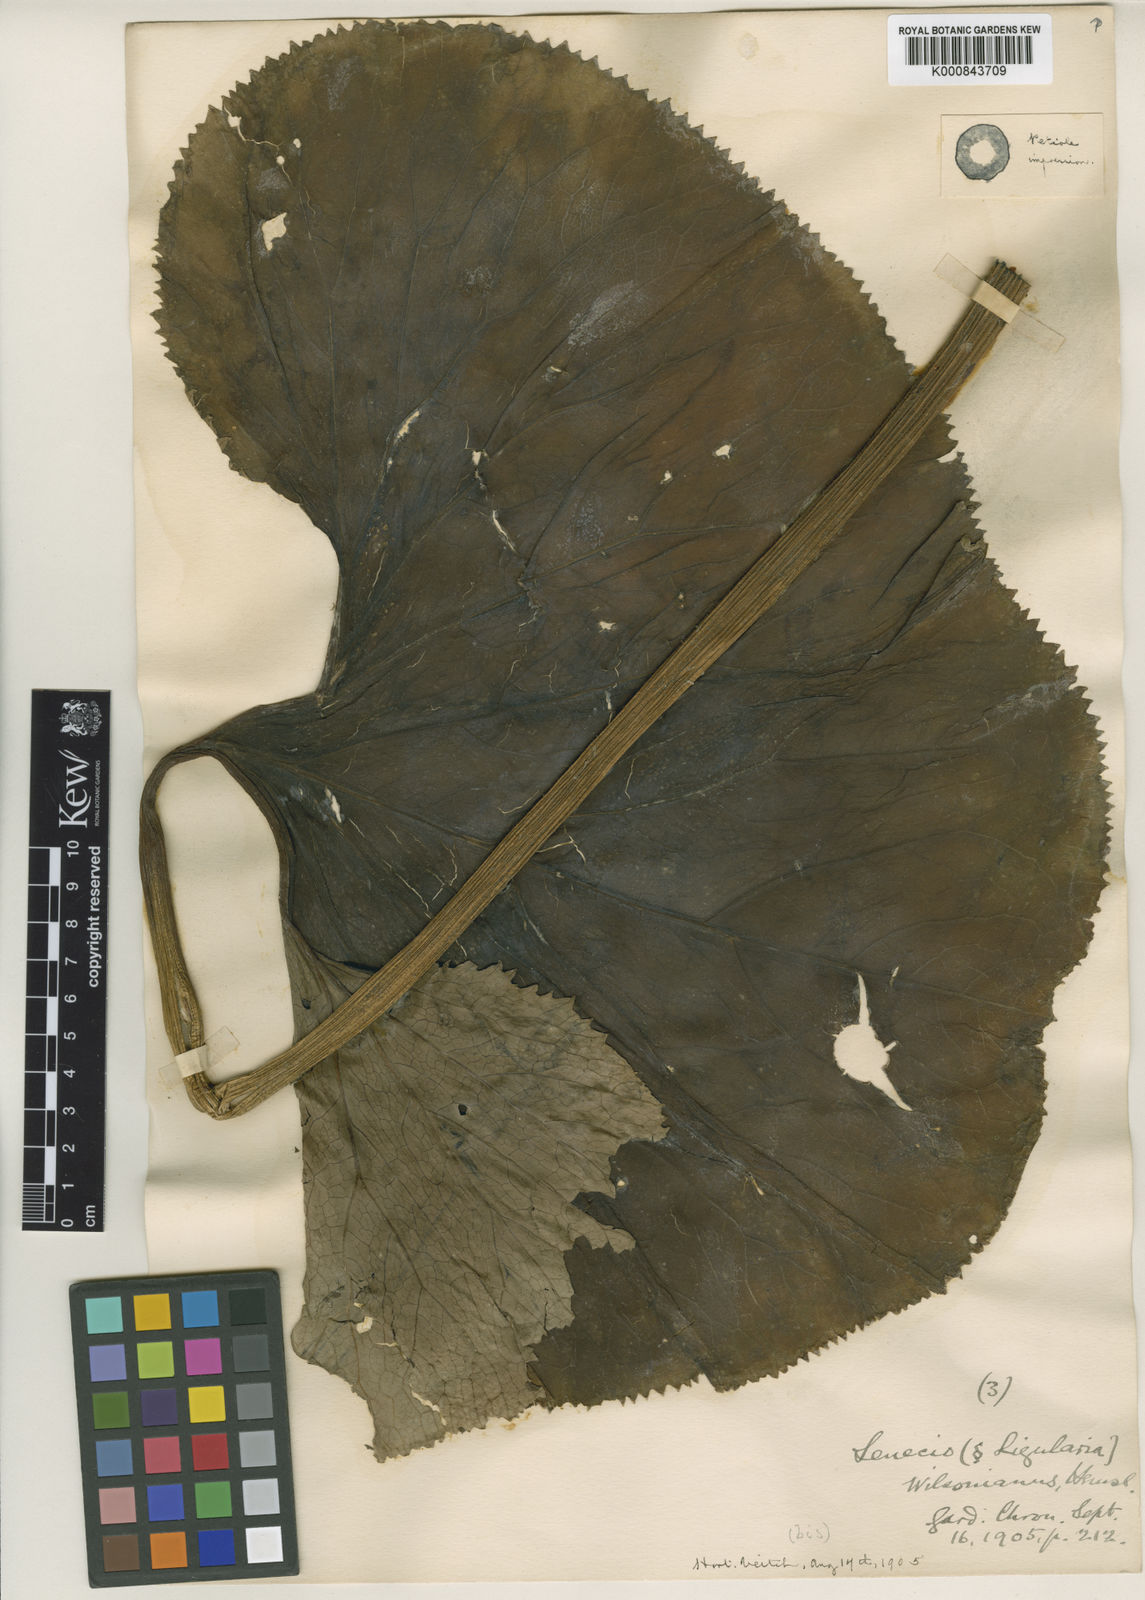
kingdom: Plantae
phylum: Tracheophyta
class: Magnoliopsida
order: Asterales
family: Asteraceae
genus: Ligularia
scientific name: Ligularia wilsoniana
